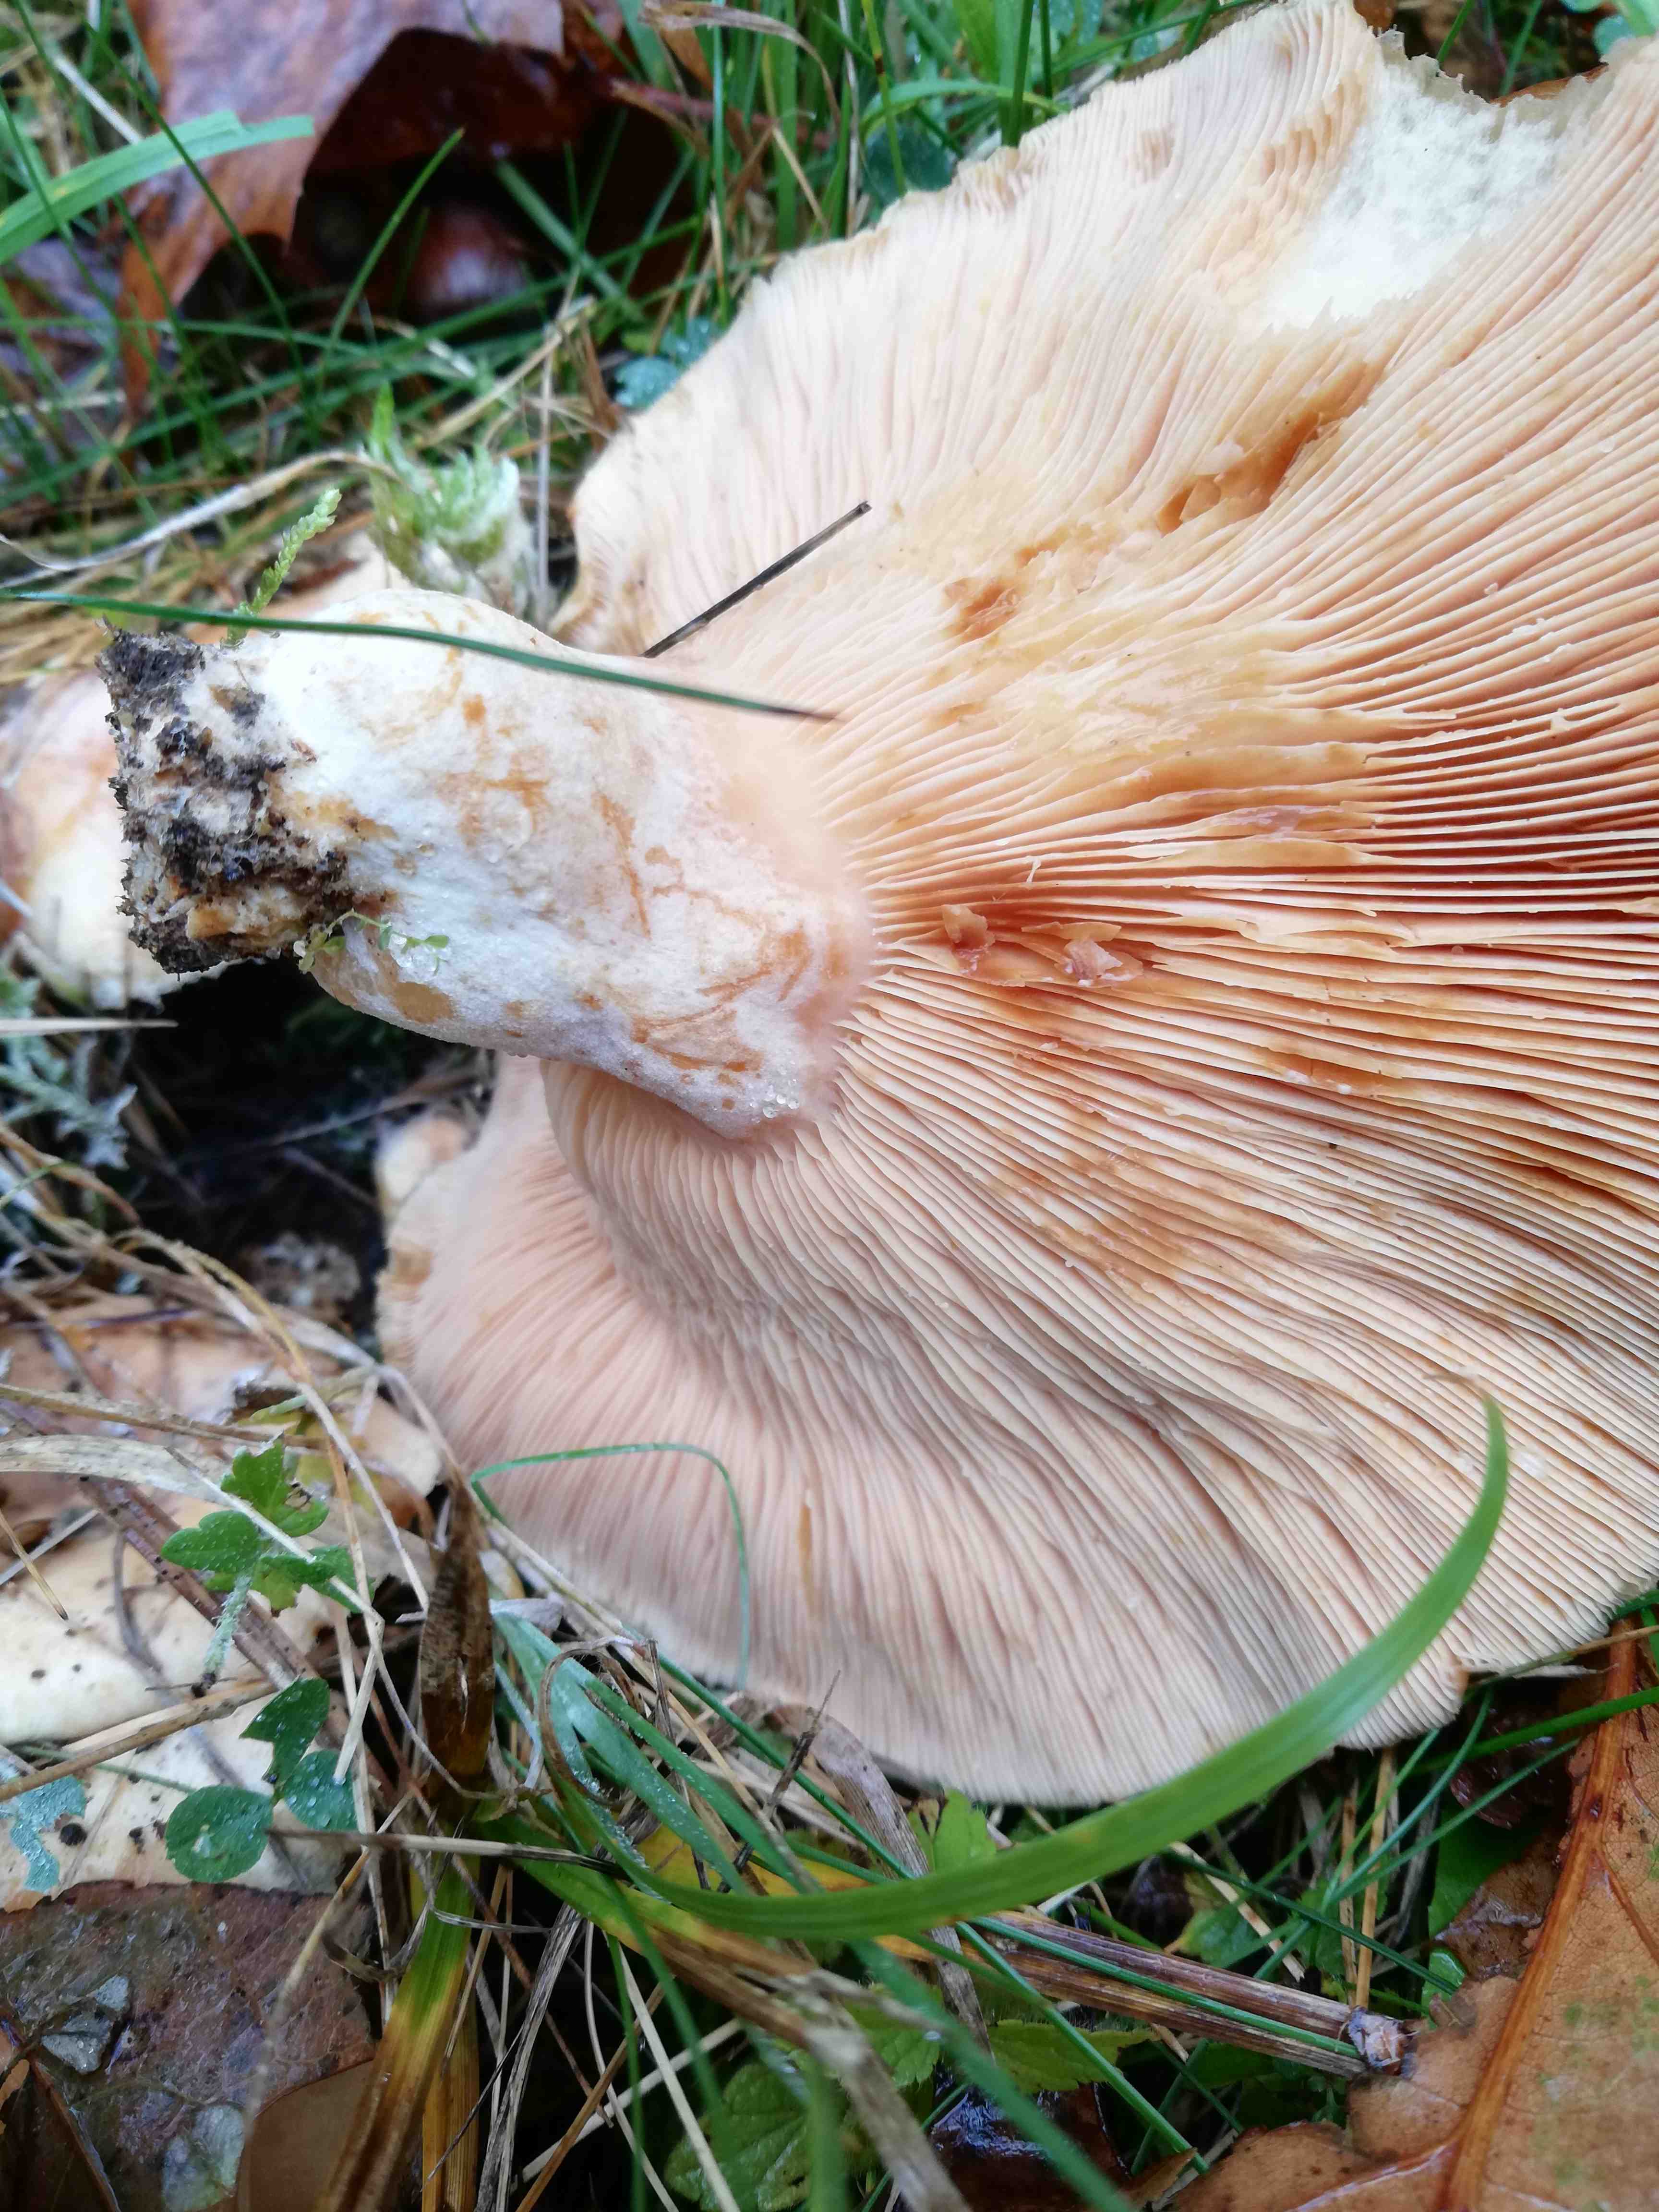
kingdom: Fungi
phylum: Basidiomycota
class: Agaricomycetes
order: Russulales
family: Russulaceae
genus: Lactarius
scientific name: Lactarius pubescens
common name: dunet mælkehat
